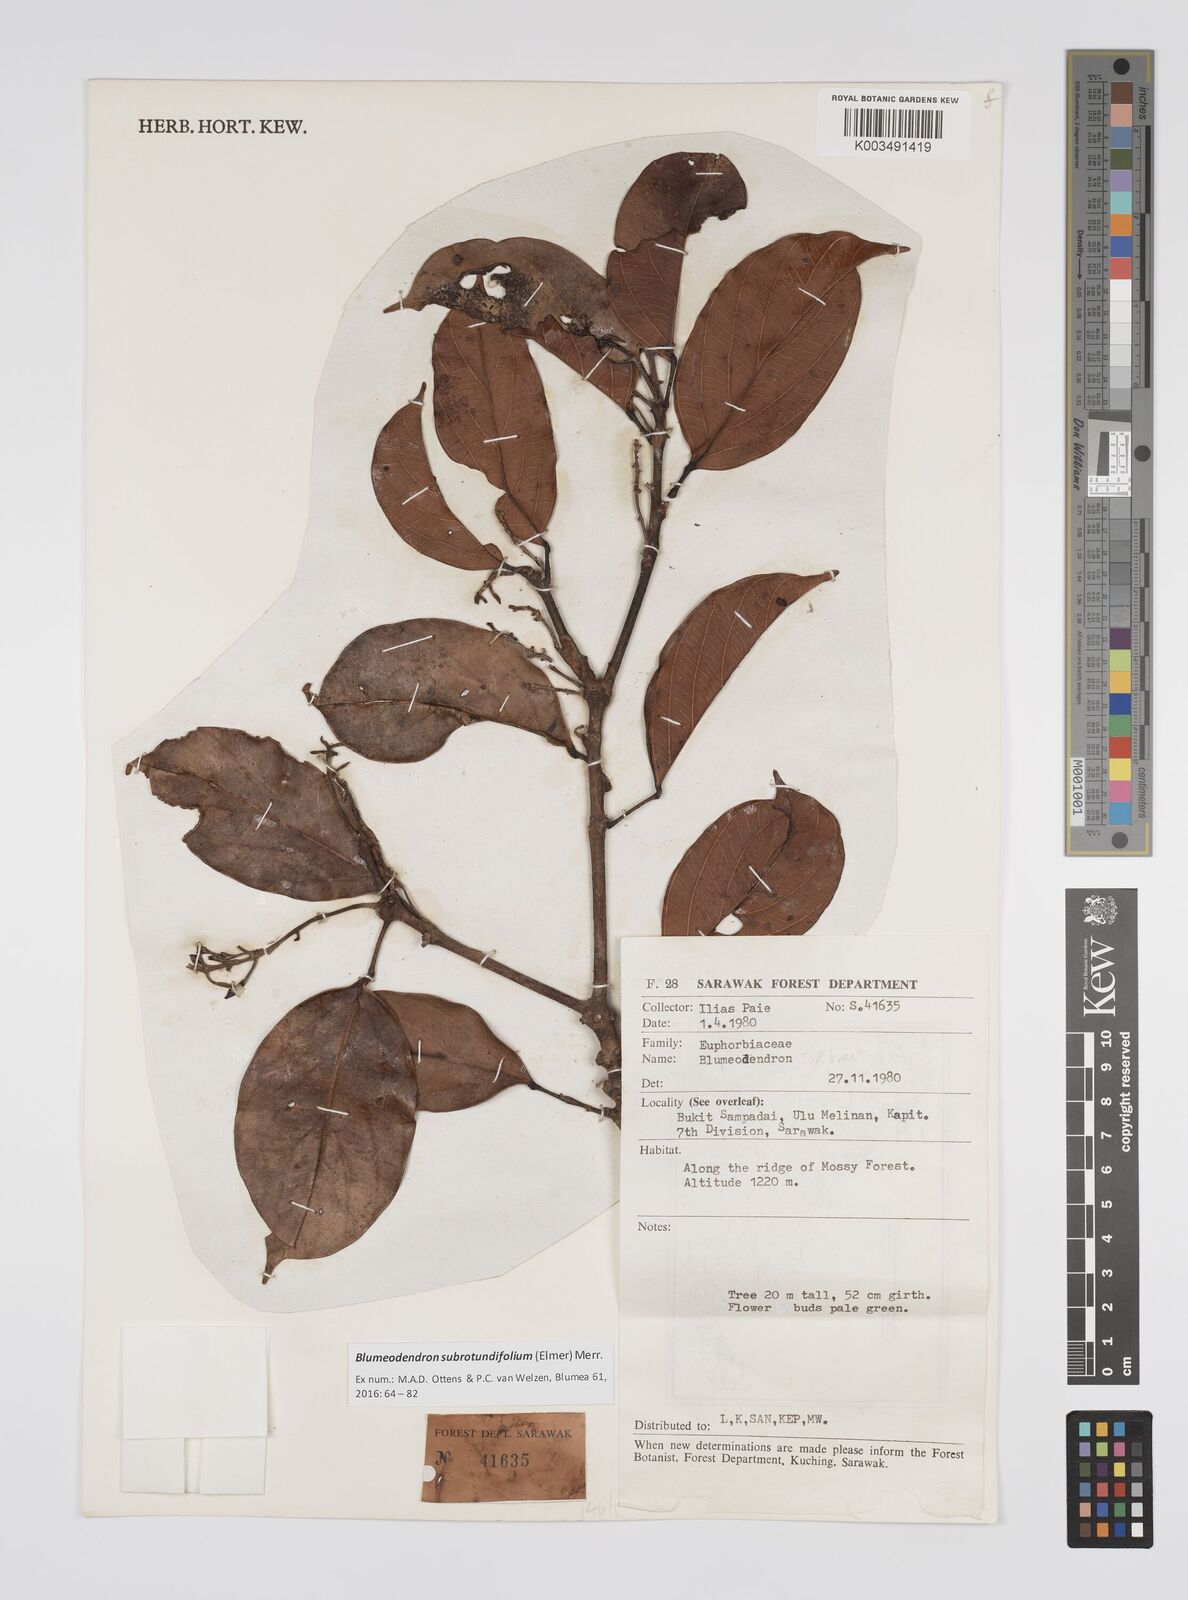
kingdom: Plantae
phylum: Tracheophyta
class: Magnoliopsida
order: Malpighiales
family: Euphorbiaceae
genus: Blumeodendron
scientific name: Blumeodendron subrotundifolium
